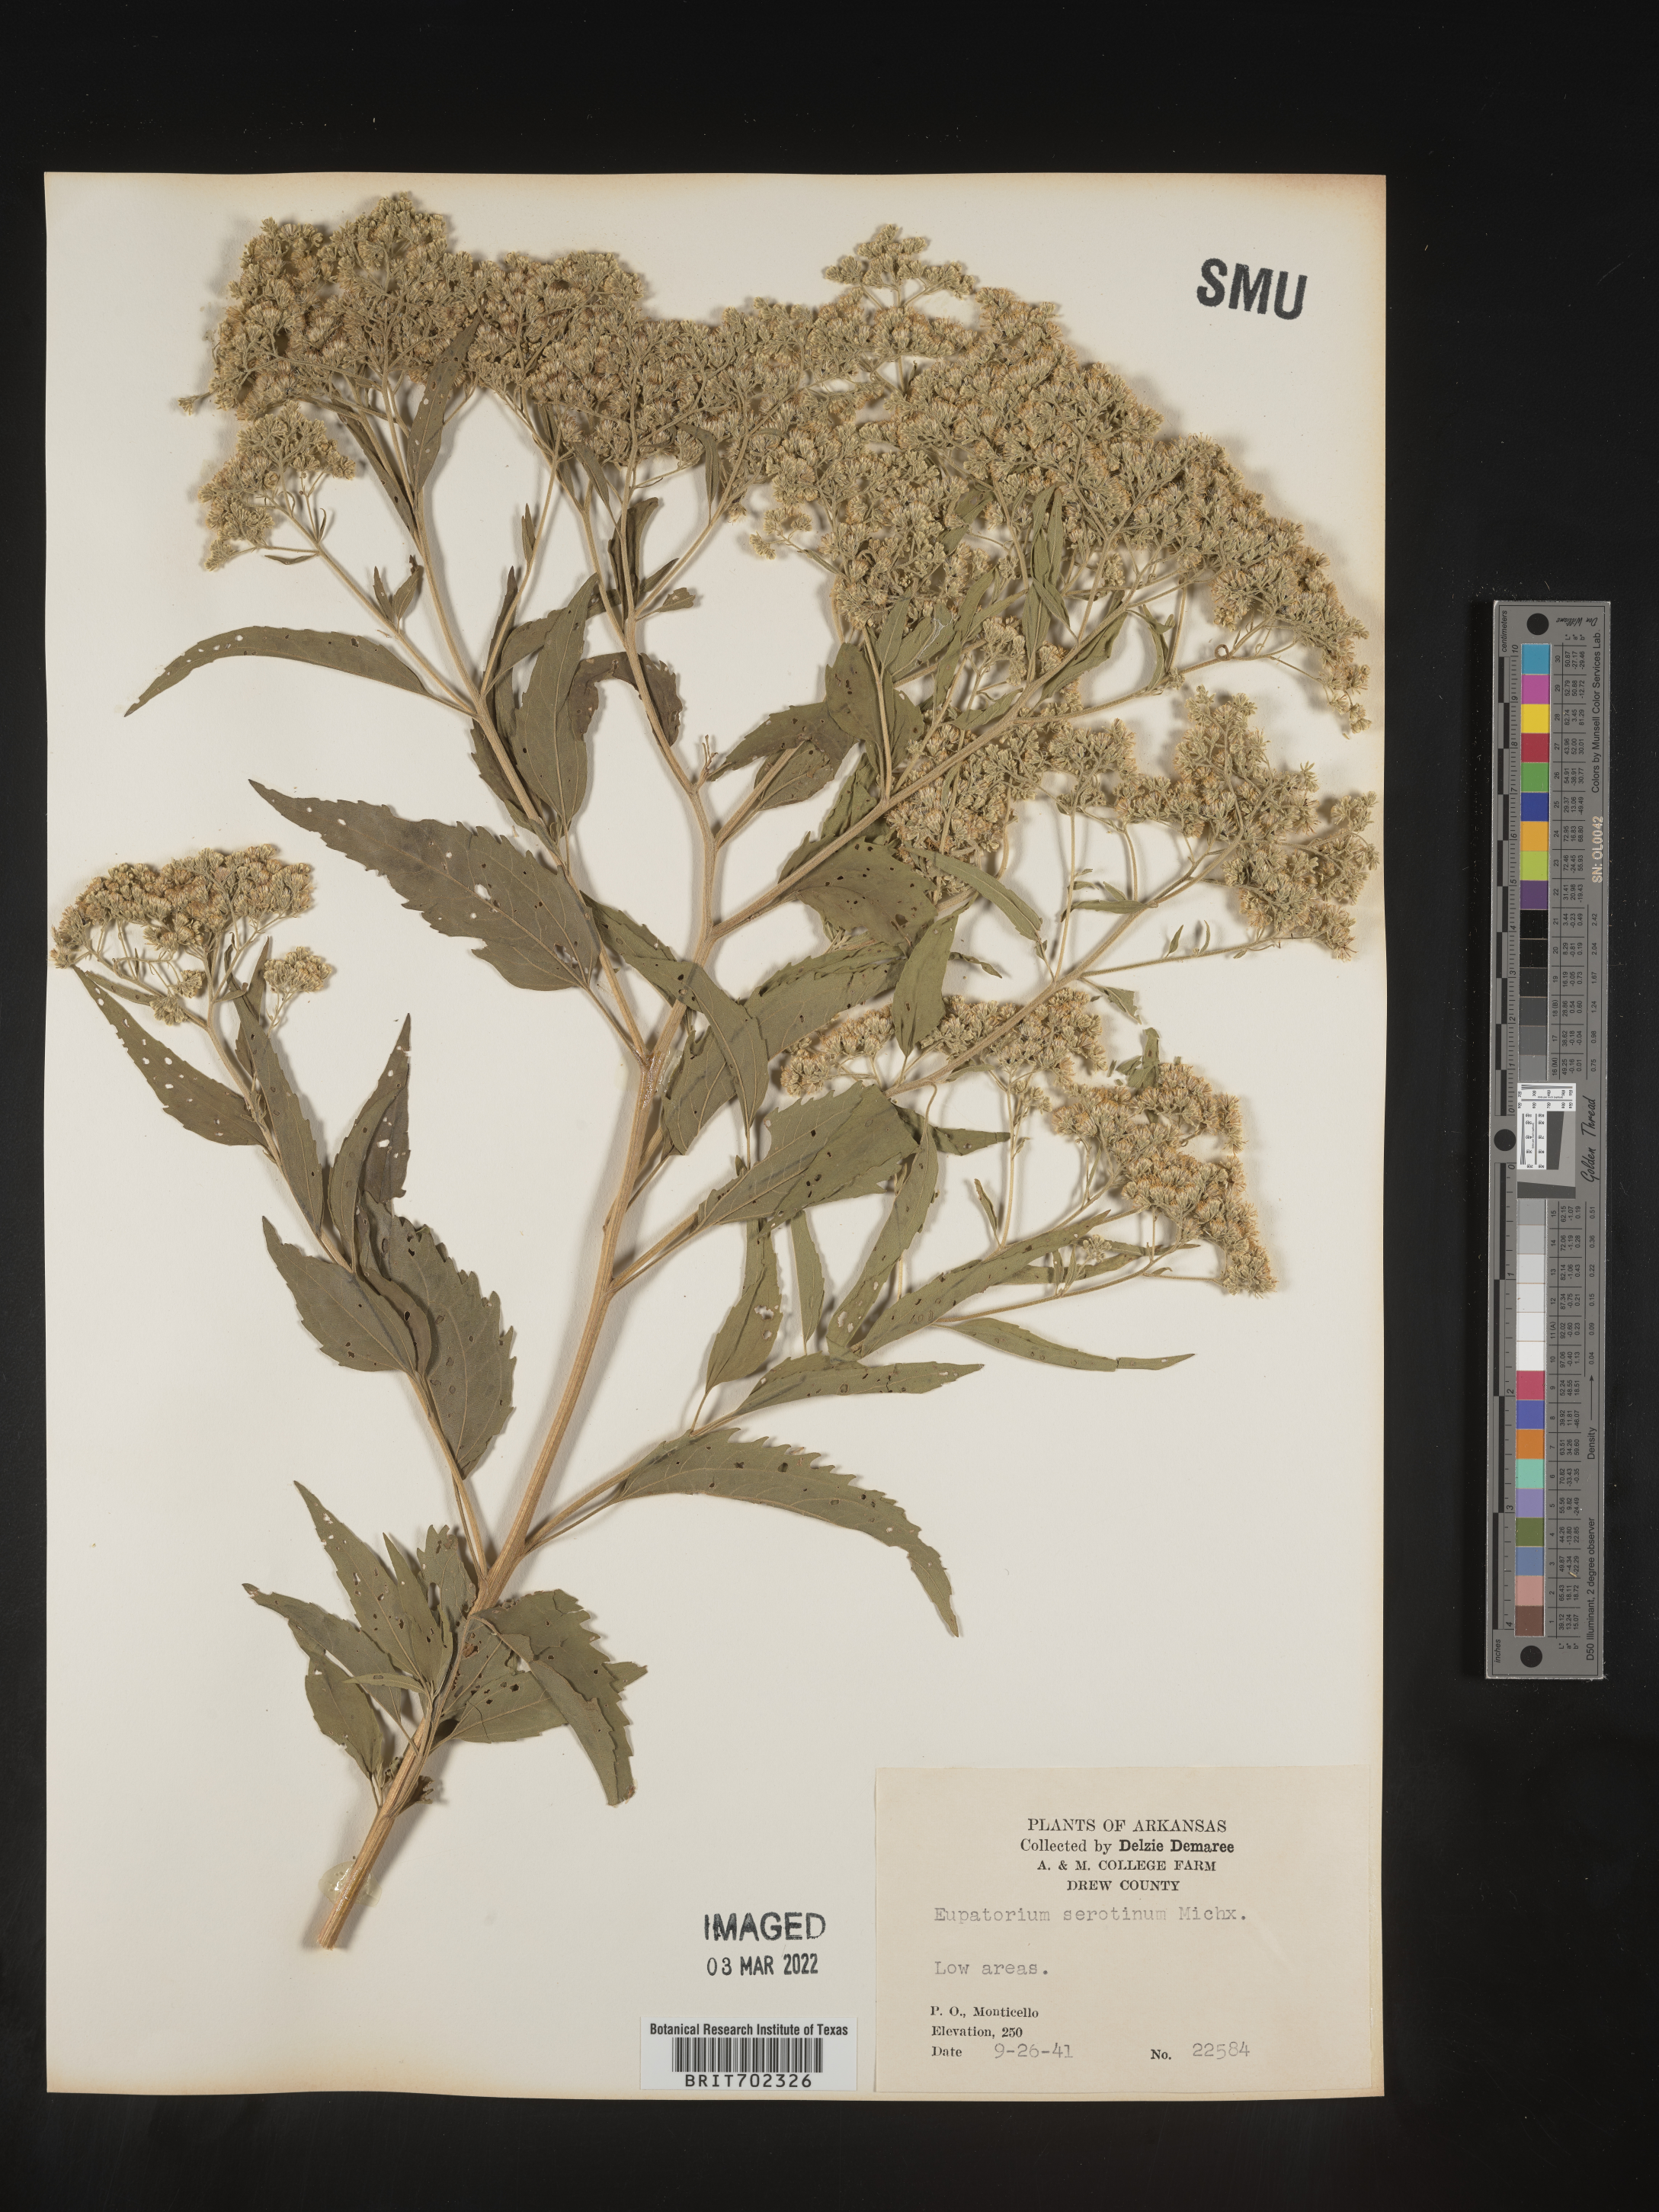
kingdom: Plantae
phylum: Tracheophyta
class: Magnoliopsida
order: Asterales
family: Asteraceae
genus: Eupatorium
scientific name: Eupatorium serotinum
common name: Late boneset
